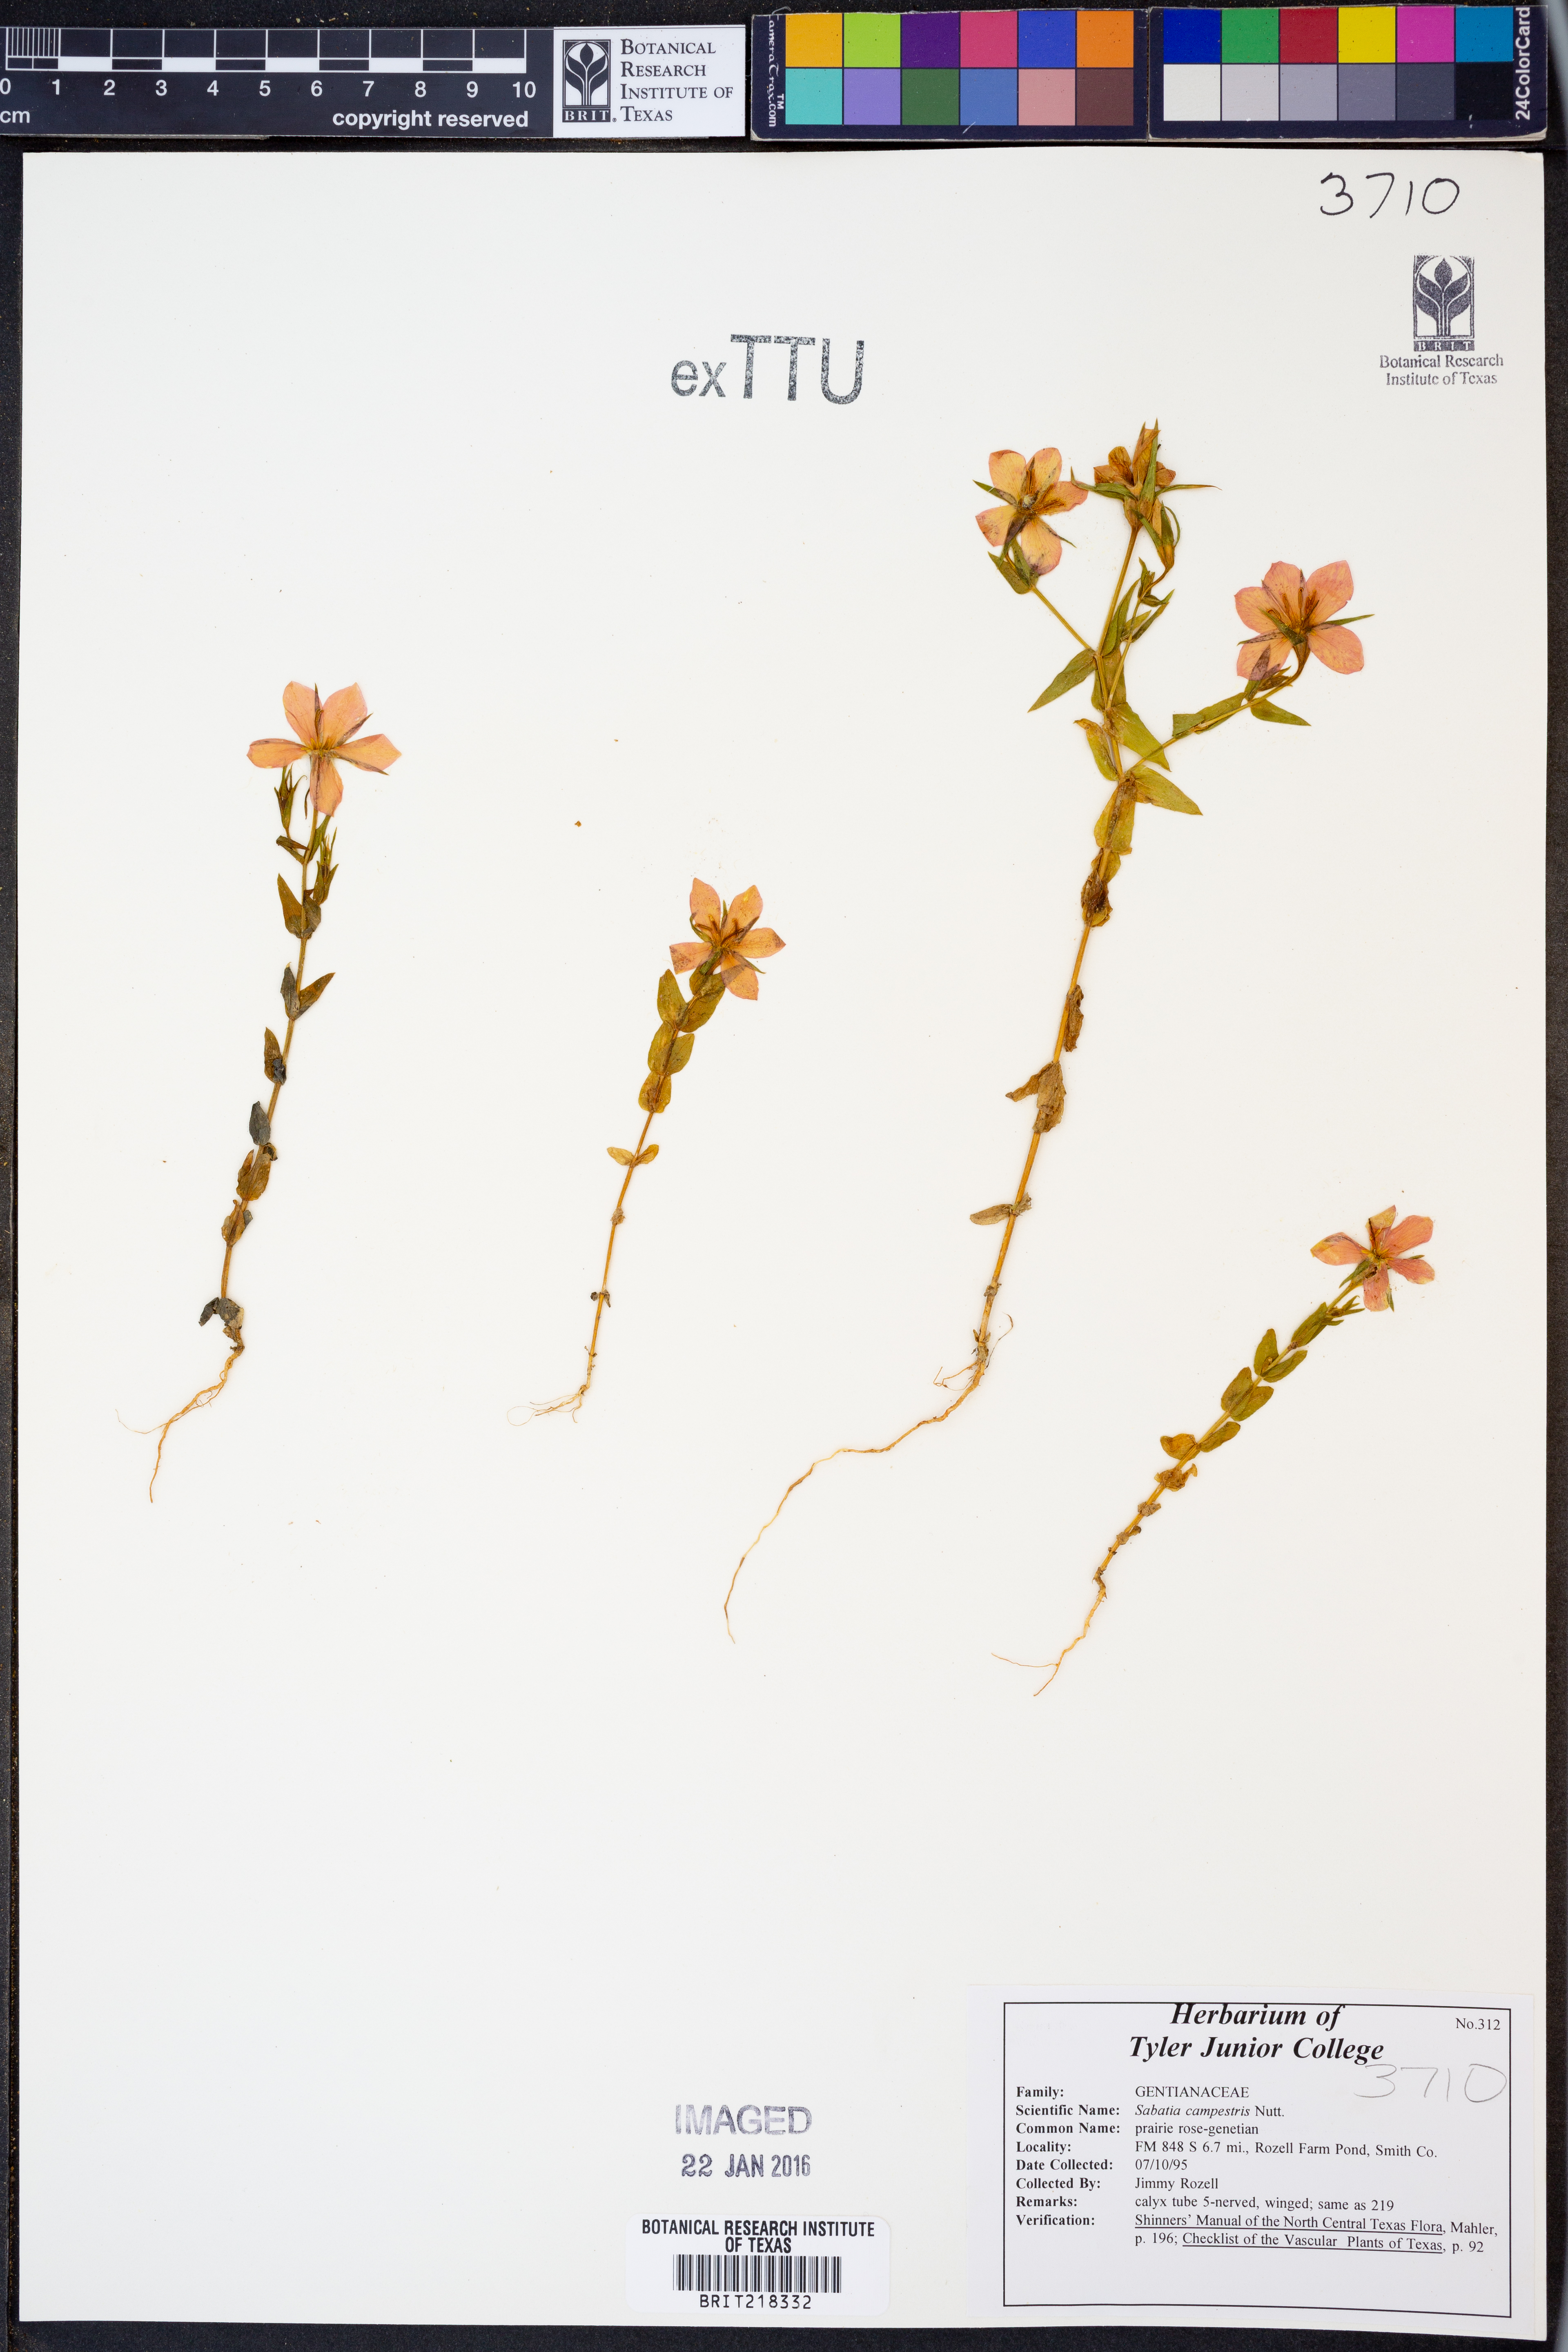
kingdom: Plantae
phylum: Tracheophyta
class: Magnoliopsida
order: Gentianales
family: Gentianaceae
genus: Sabatia
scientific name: Sabatia campestris
